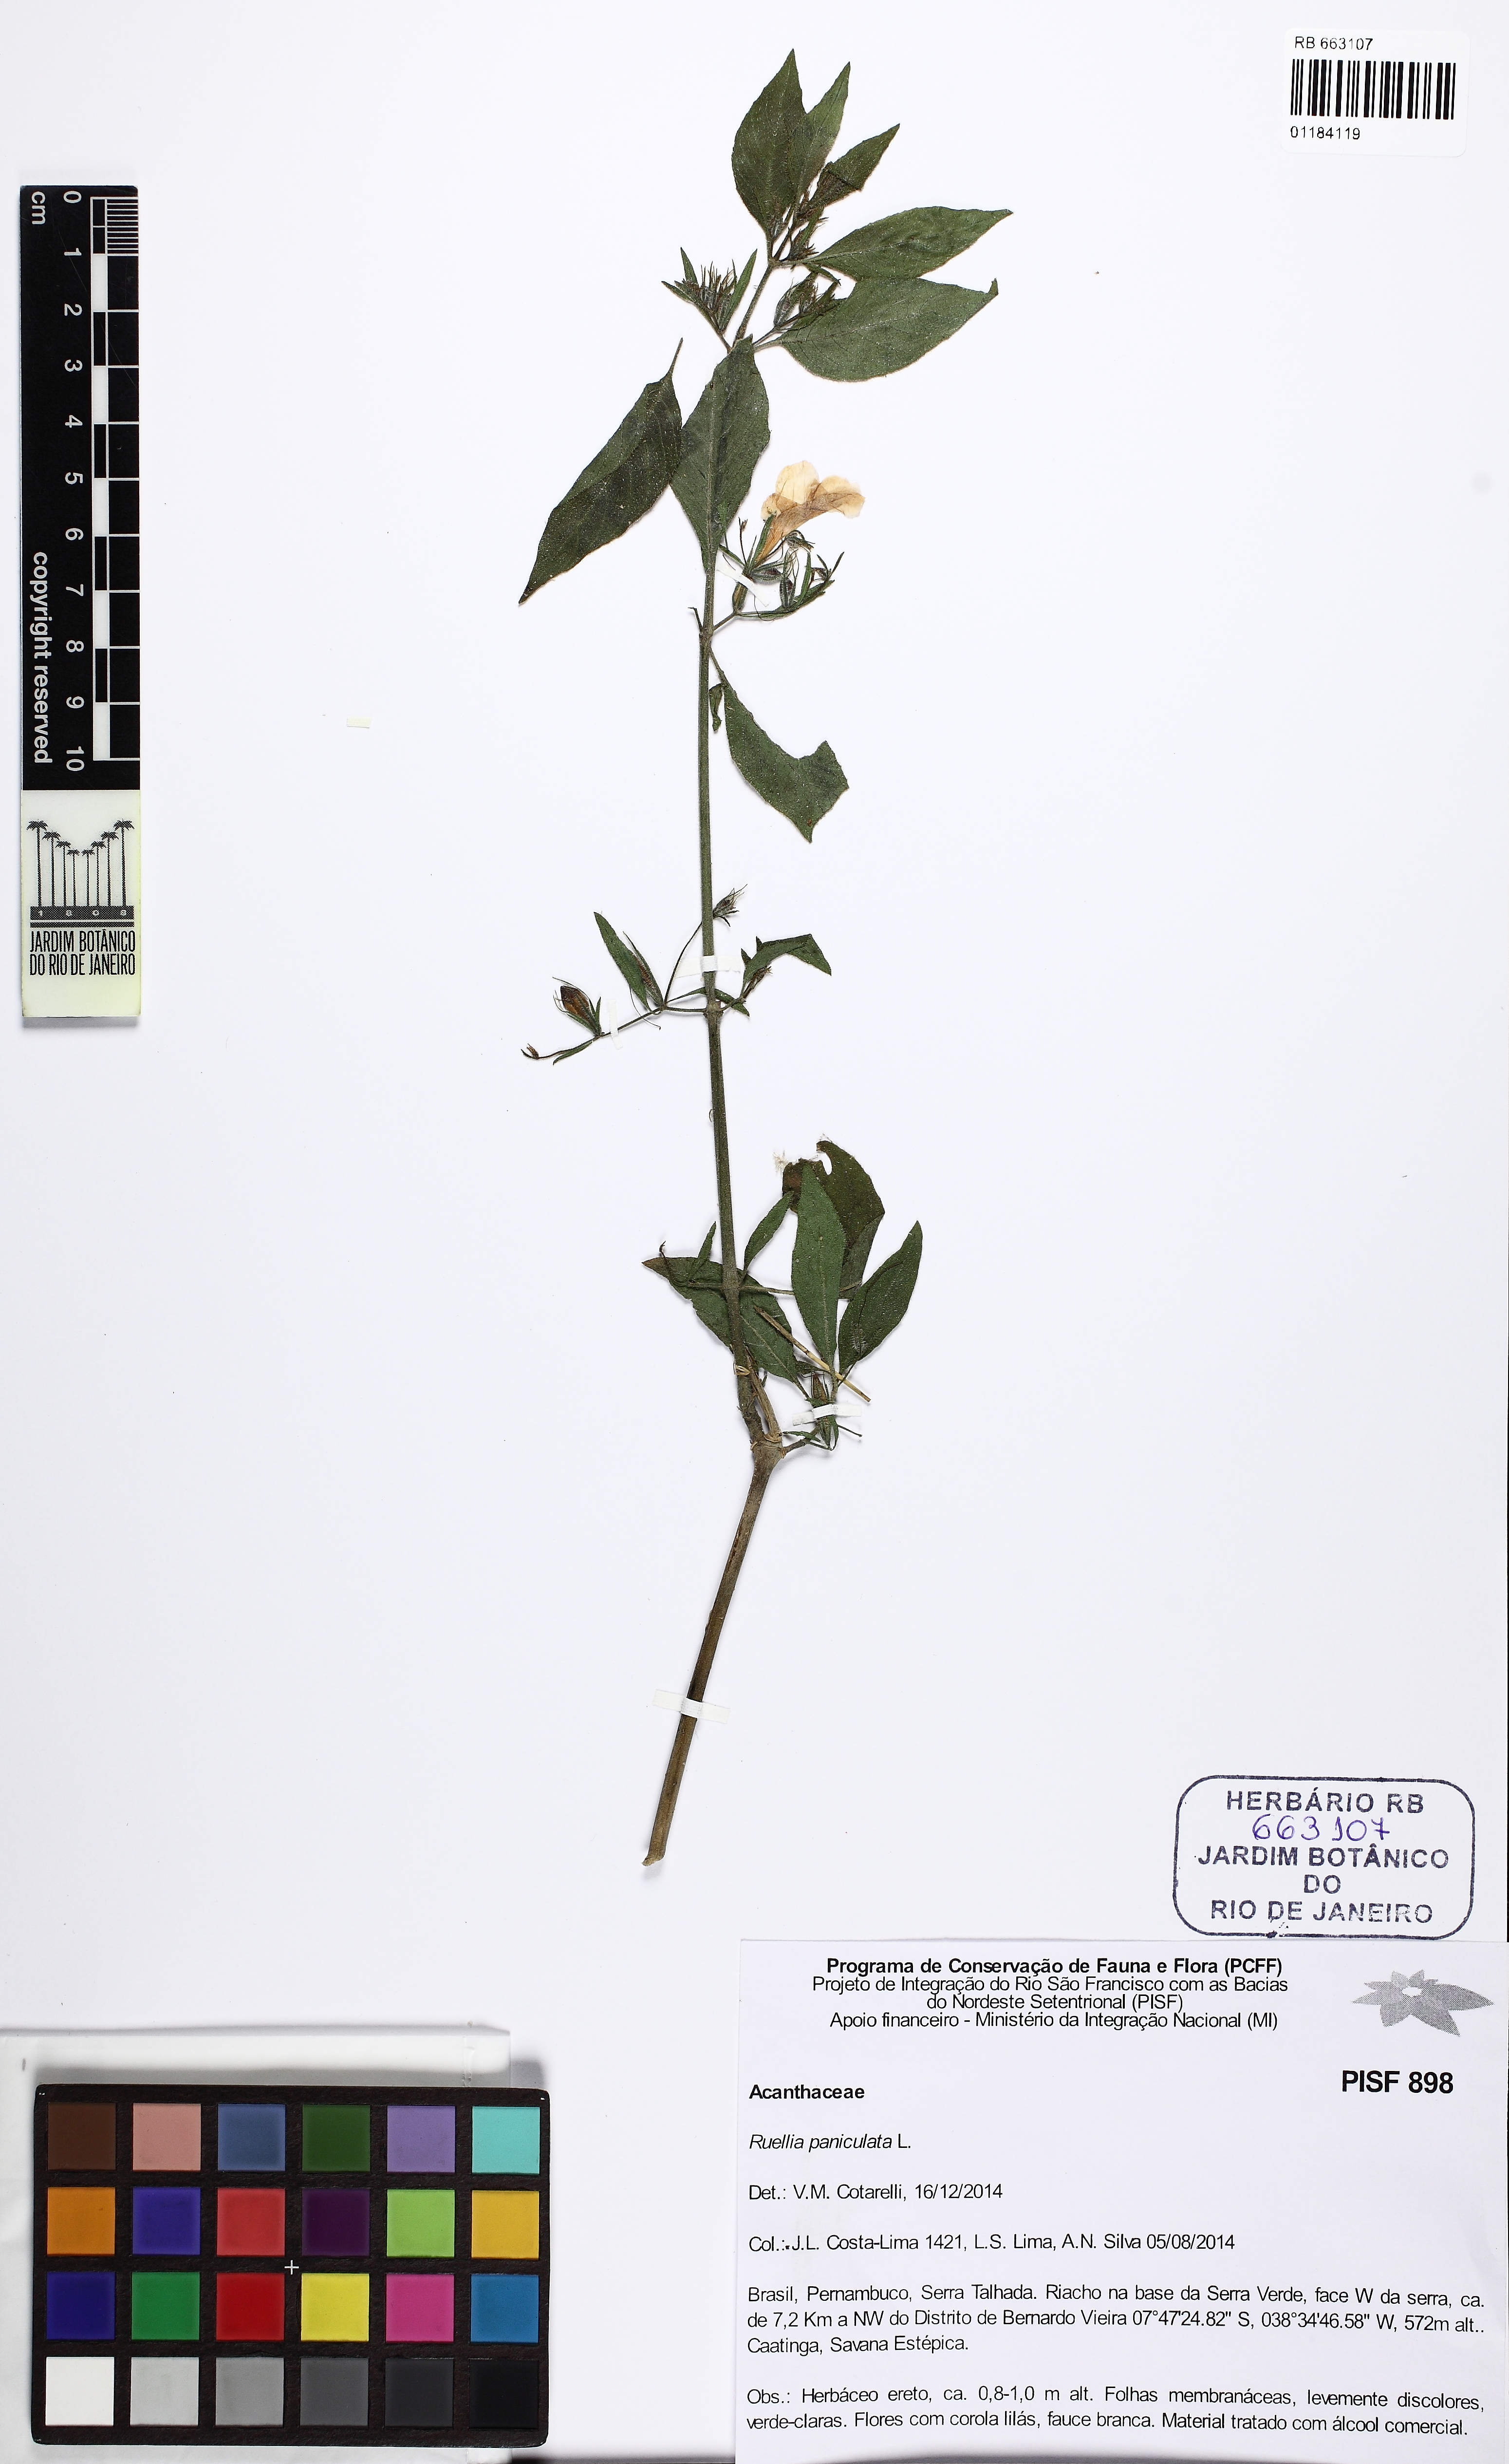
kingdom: Plantae
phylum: Tracheophyta
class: Magnoliopsida
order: Lamiales
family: Acanthaceae
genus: Ruellia
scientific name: Ruellia paniculata
